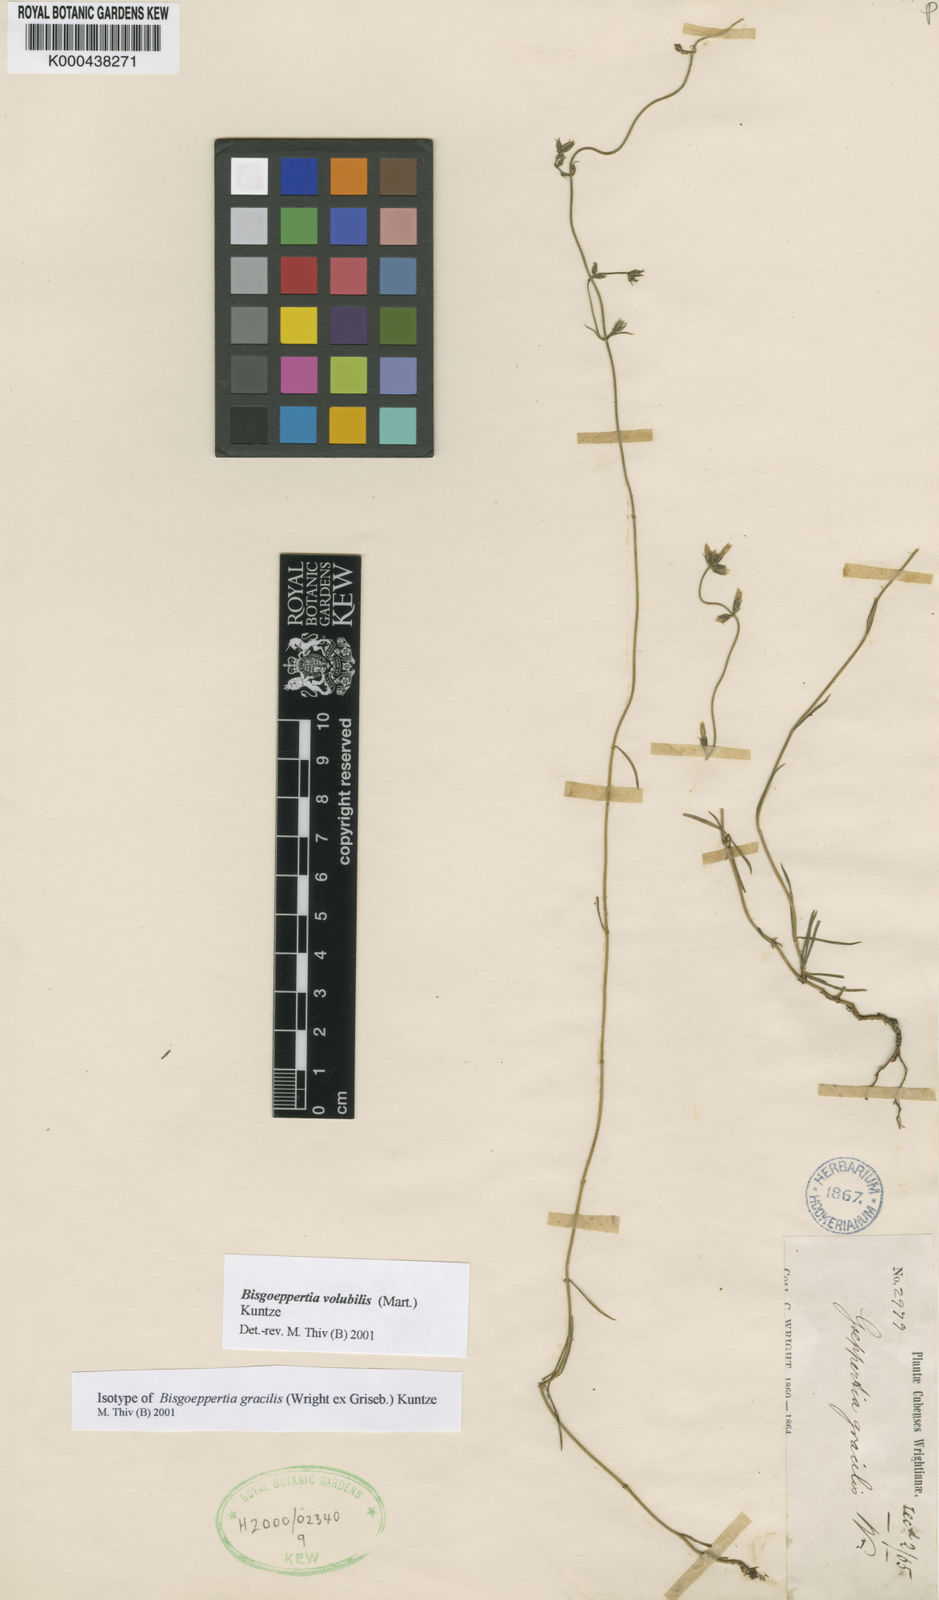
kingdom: Plantae
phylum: Tracheophyta
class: Magnoliopsida
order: Gentianales
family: Gentianaceae
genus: Bisgoeppertia
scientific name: Bisgoeppertia gracilis
